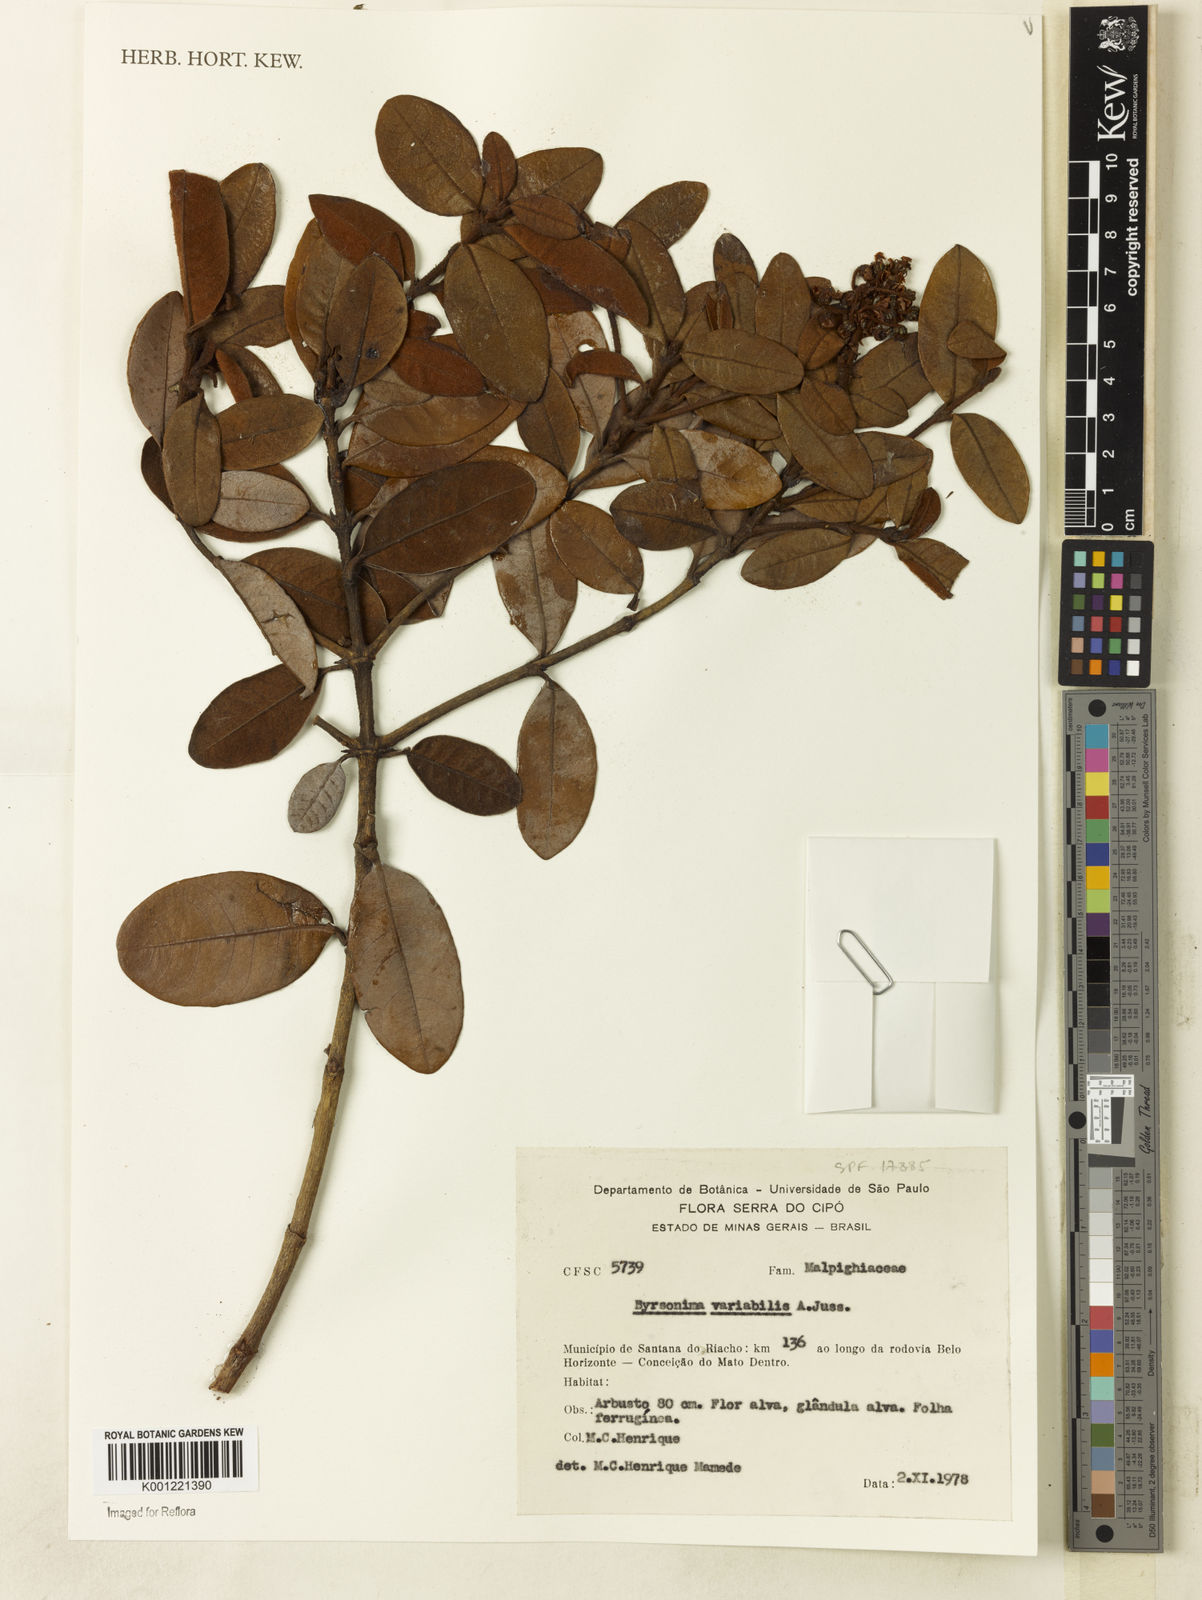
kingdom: Plantae
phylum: Tracheophyta
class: Magnoliopsida
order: Malpighiales
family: Malpighiaceae
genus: Byrsonima
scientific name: Byrsonima variabilis
